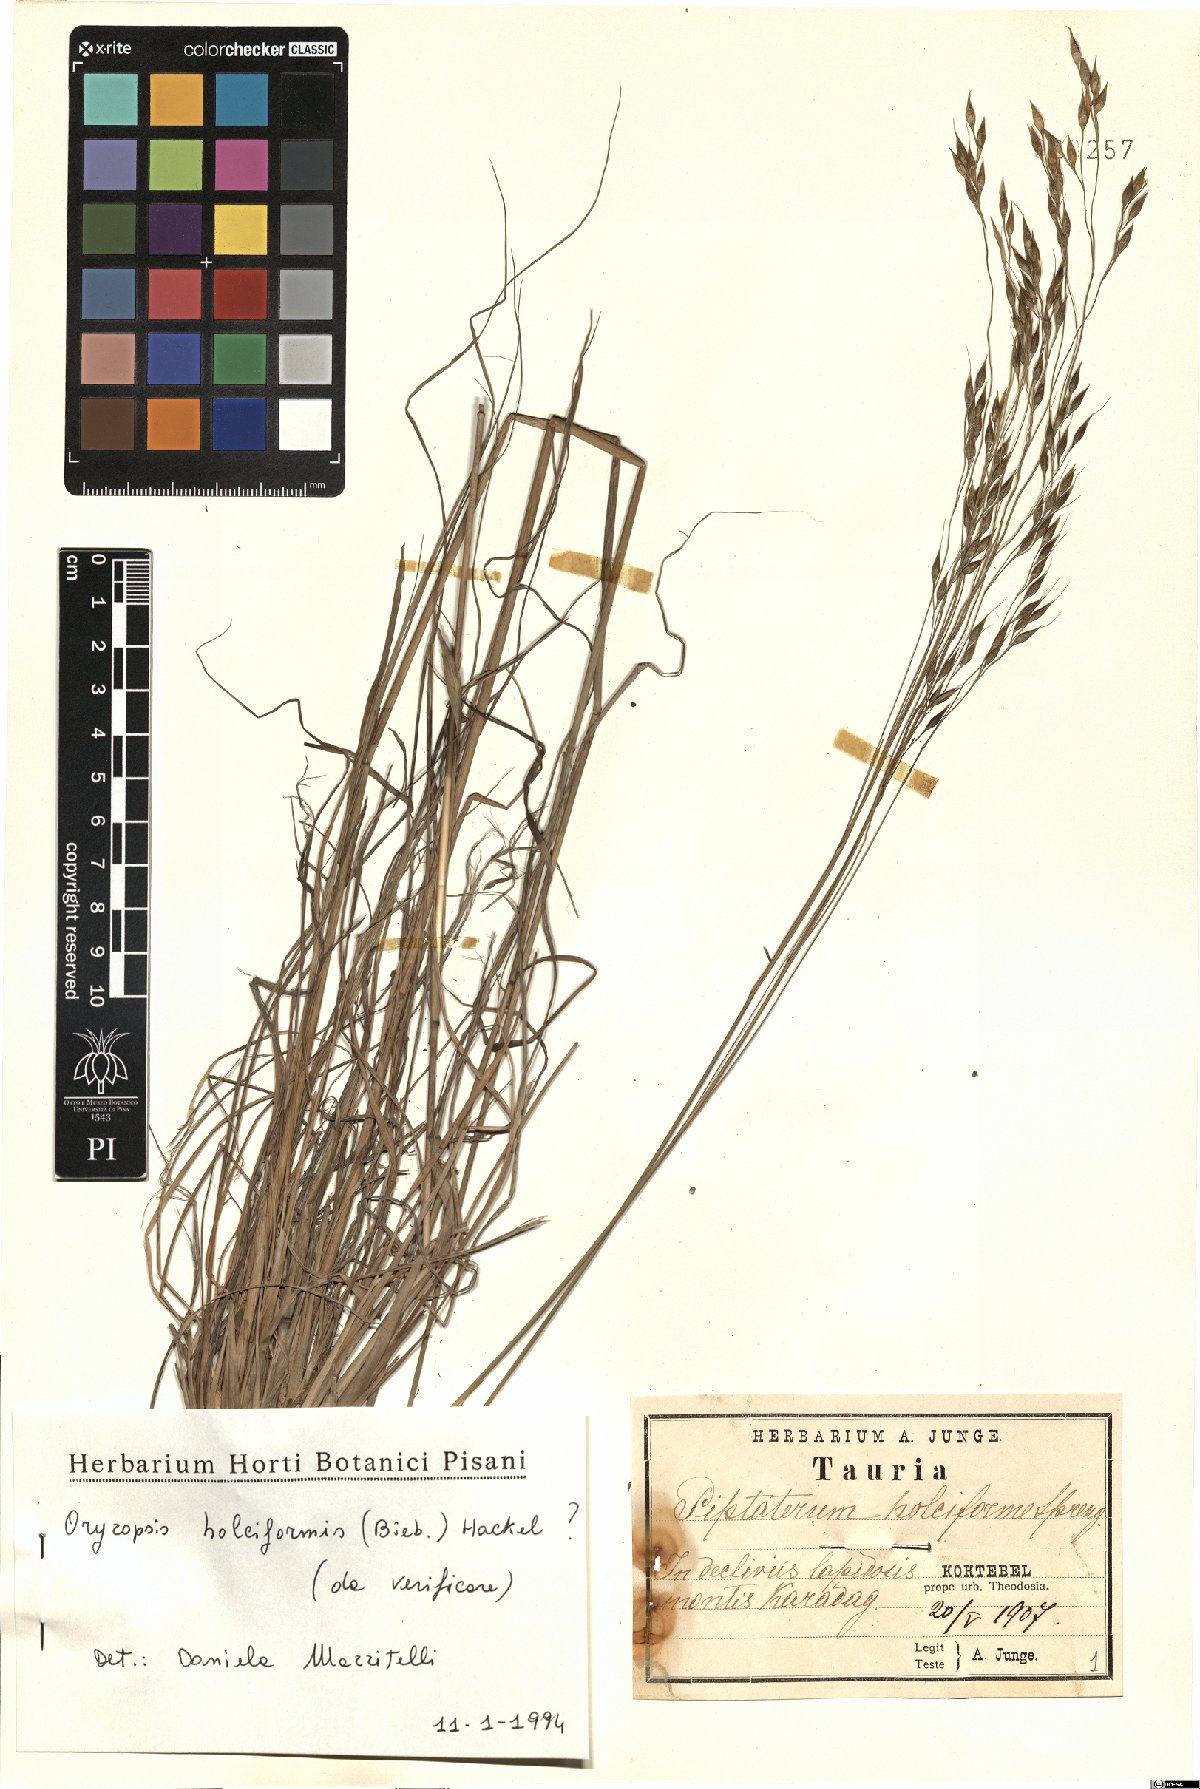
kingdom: Plantae
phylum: Tracheophyta
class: Liliopsida
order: Poales
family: Poaceae
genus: Piptatherum
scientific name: Piptatherum holciforme
